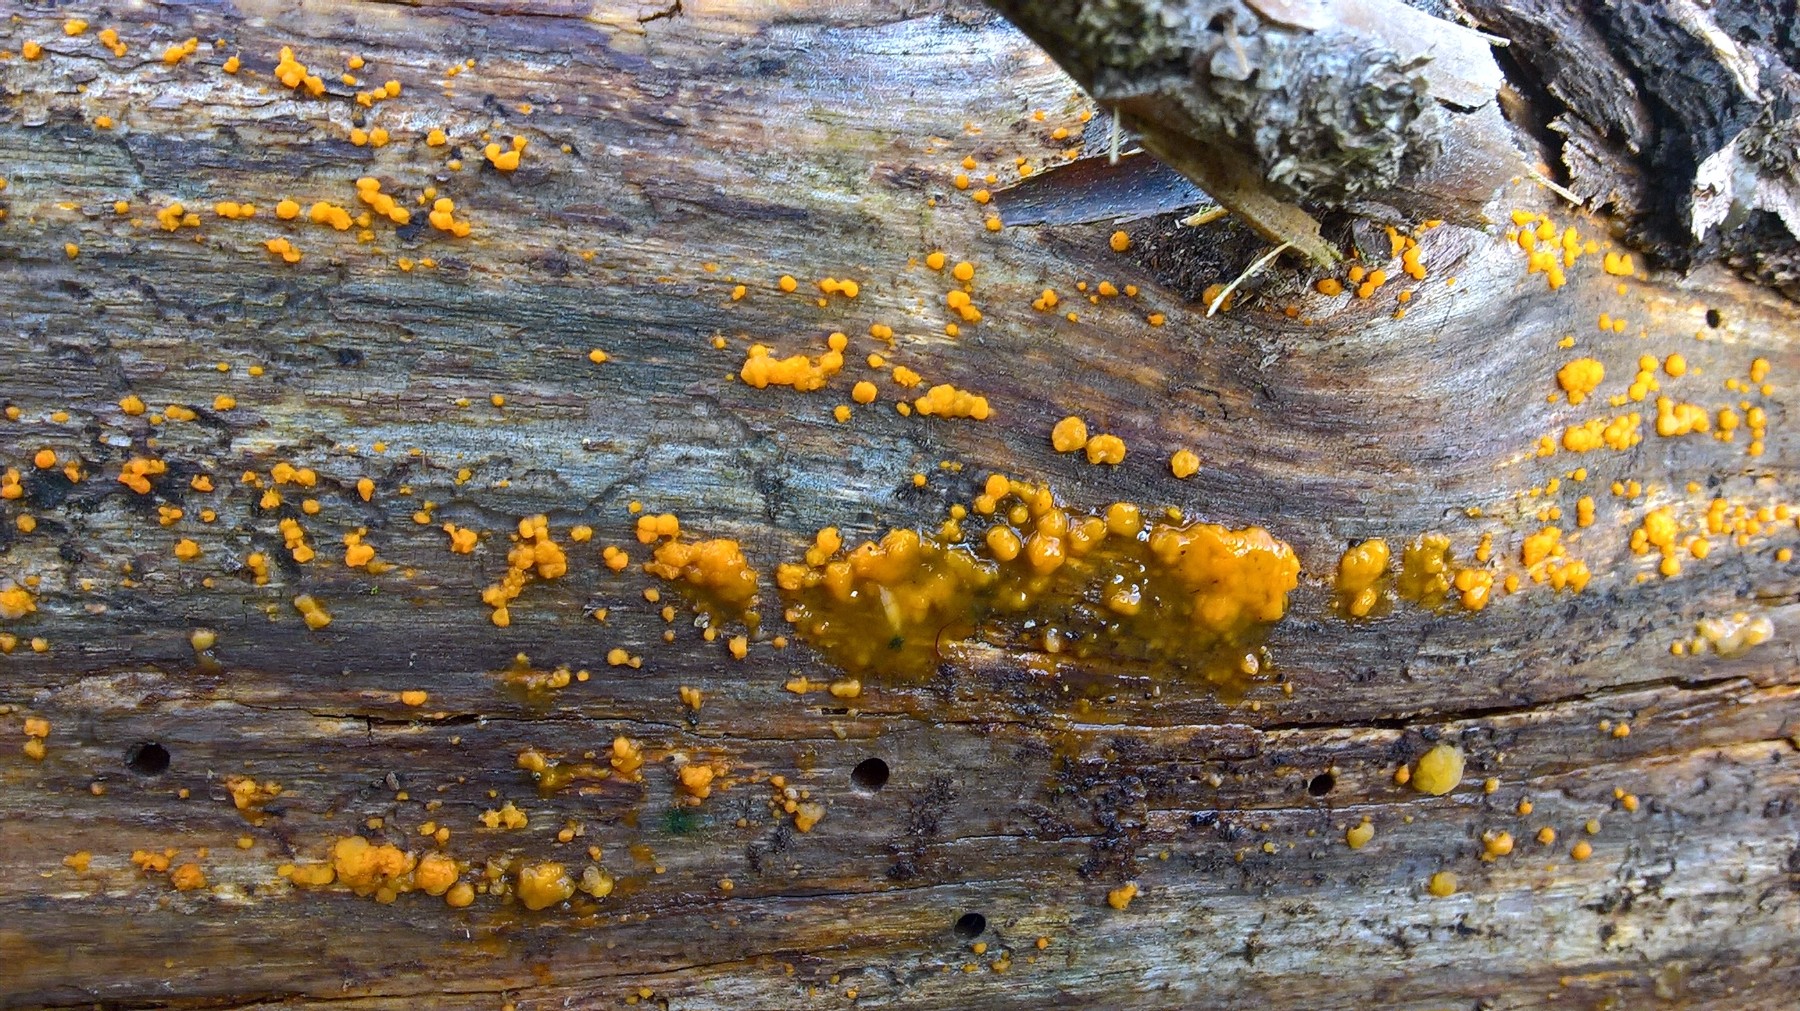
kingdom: Fungi
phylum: Basidiomycota
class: Dacrymycetes
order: Dacrymycetales
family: Dacrymycetaceae
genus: Dacrymyces
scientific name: Dacrymyces stillatus
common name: almindelig tåresvamp
